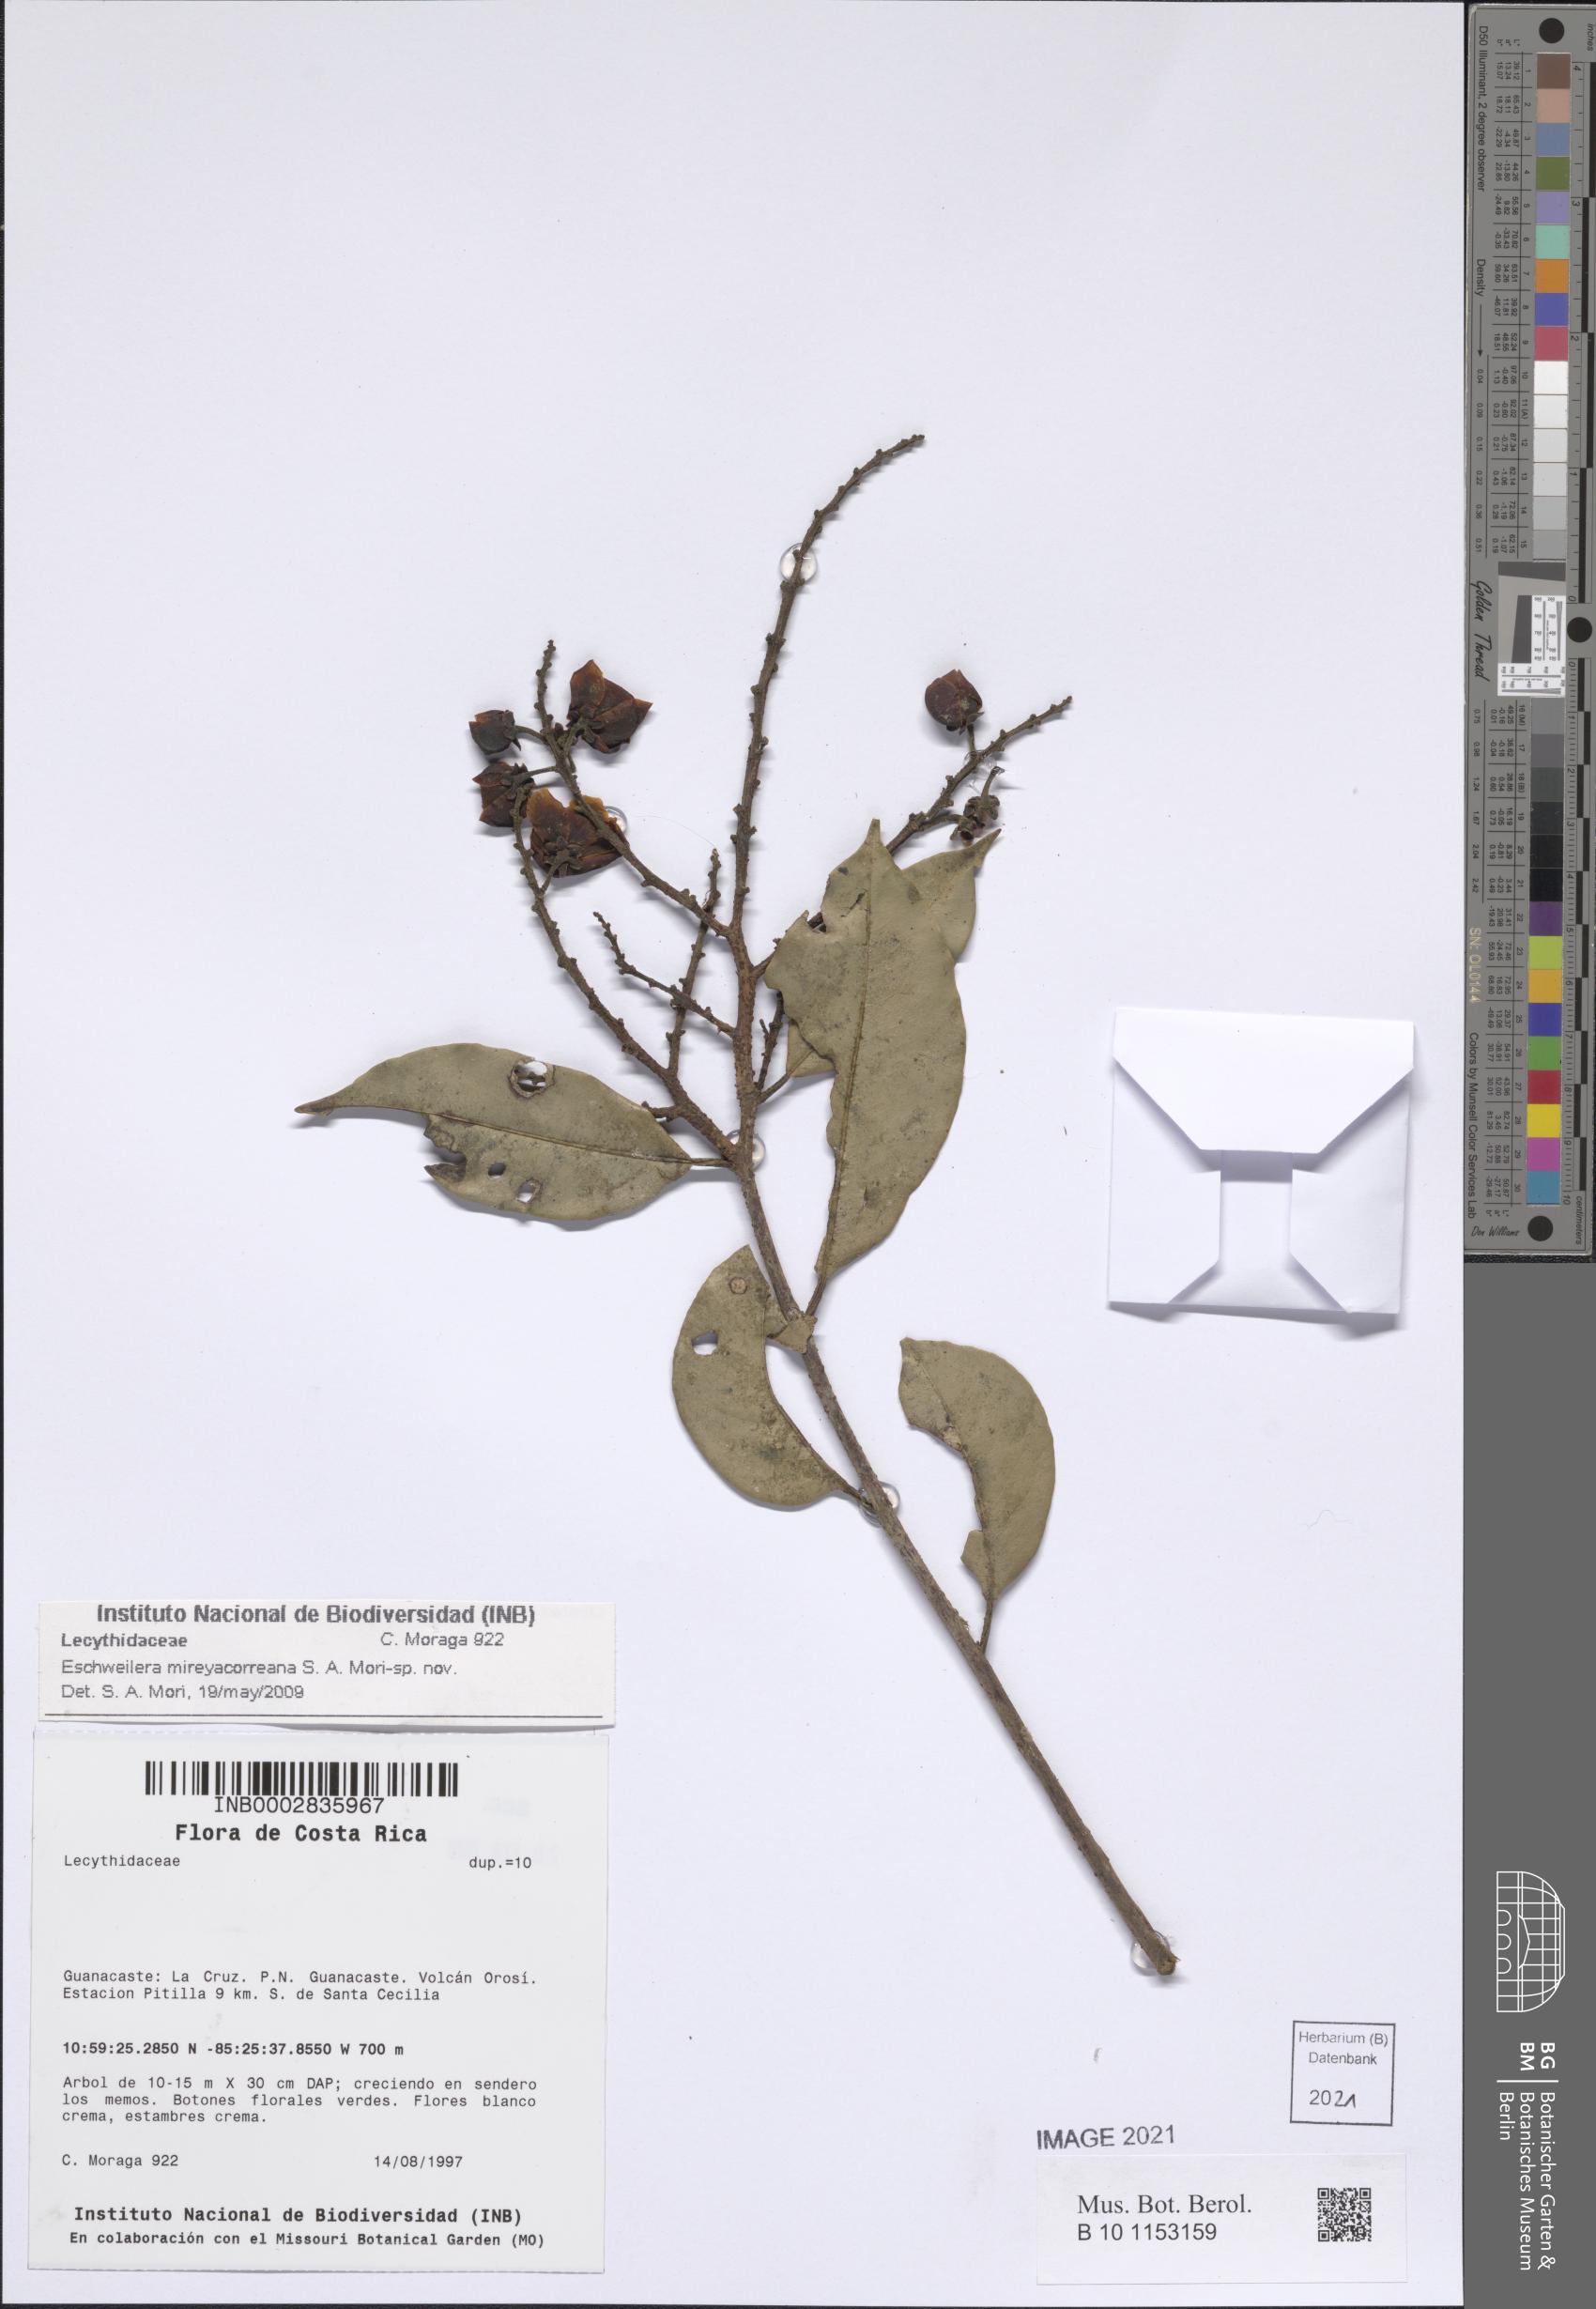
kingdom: Plantae
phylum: Tracheophyta
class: Magnoliopsida
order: Ericales
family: Lecythidaceae
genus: Eschweilera
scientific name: Eschweilera
